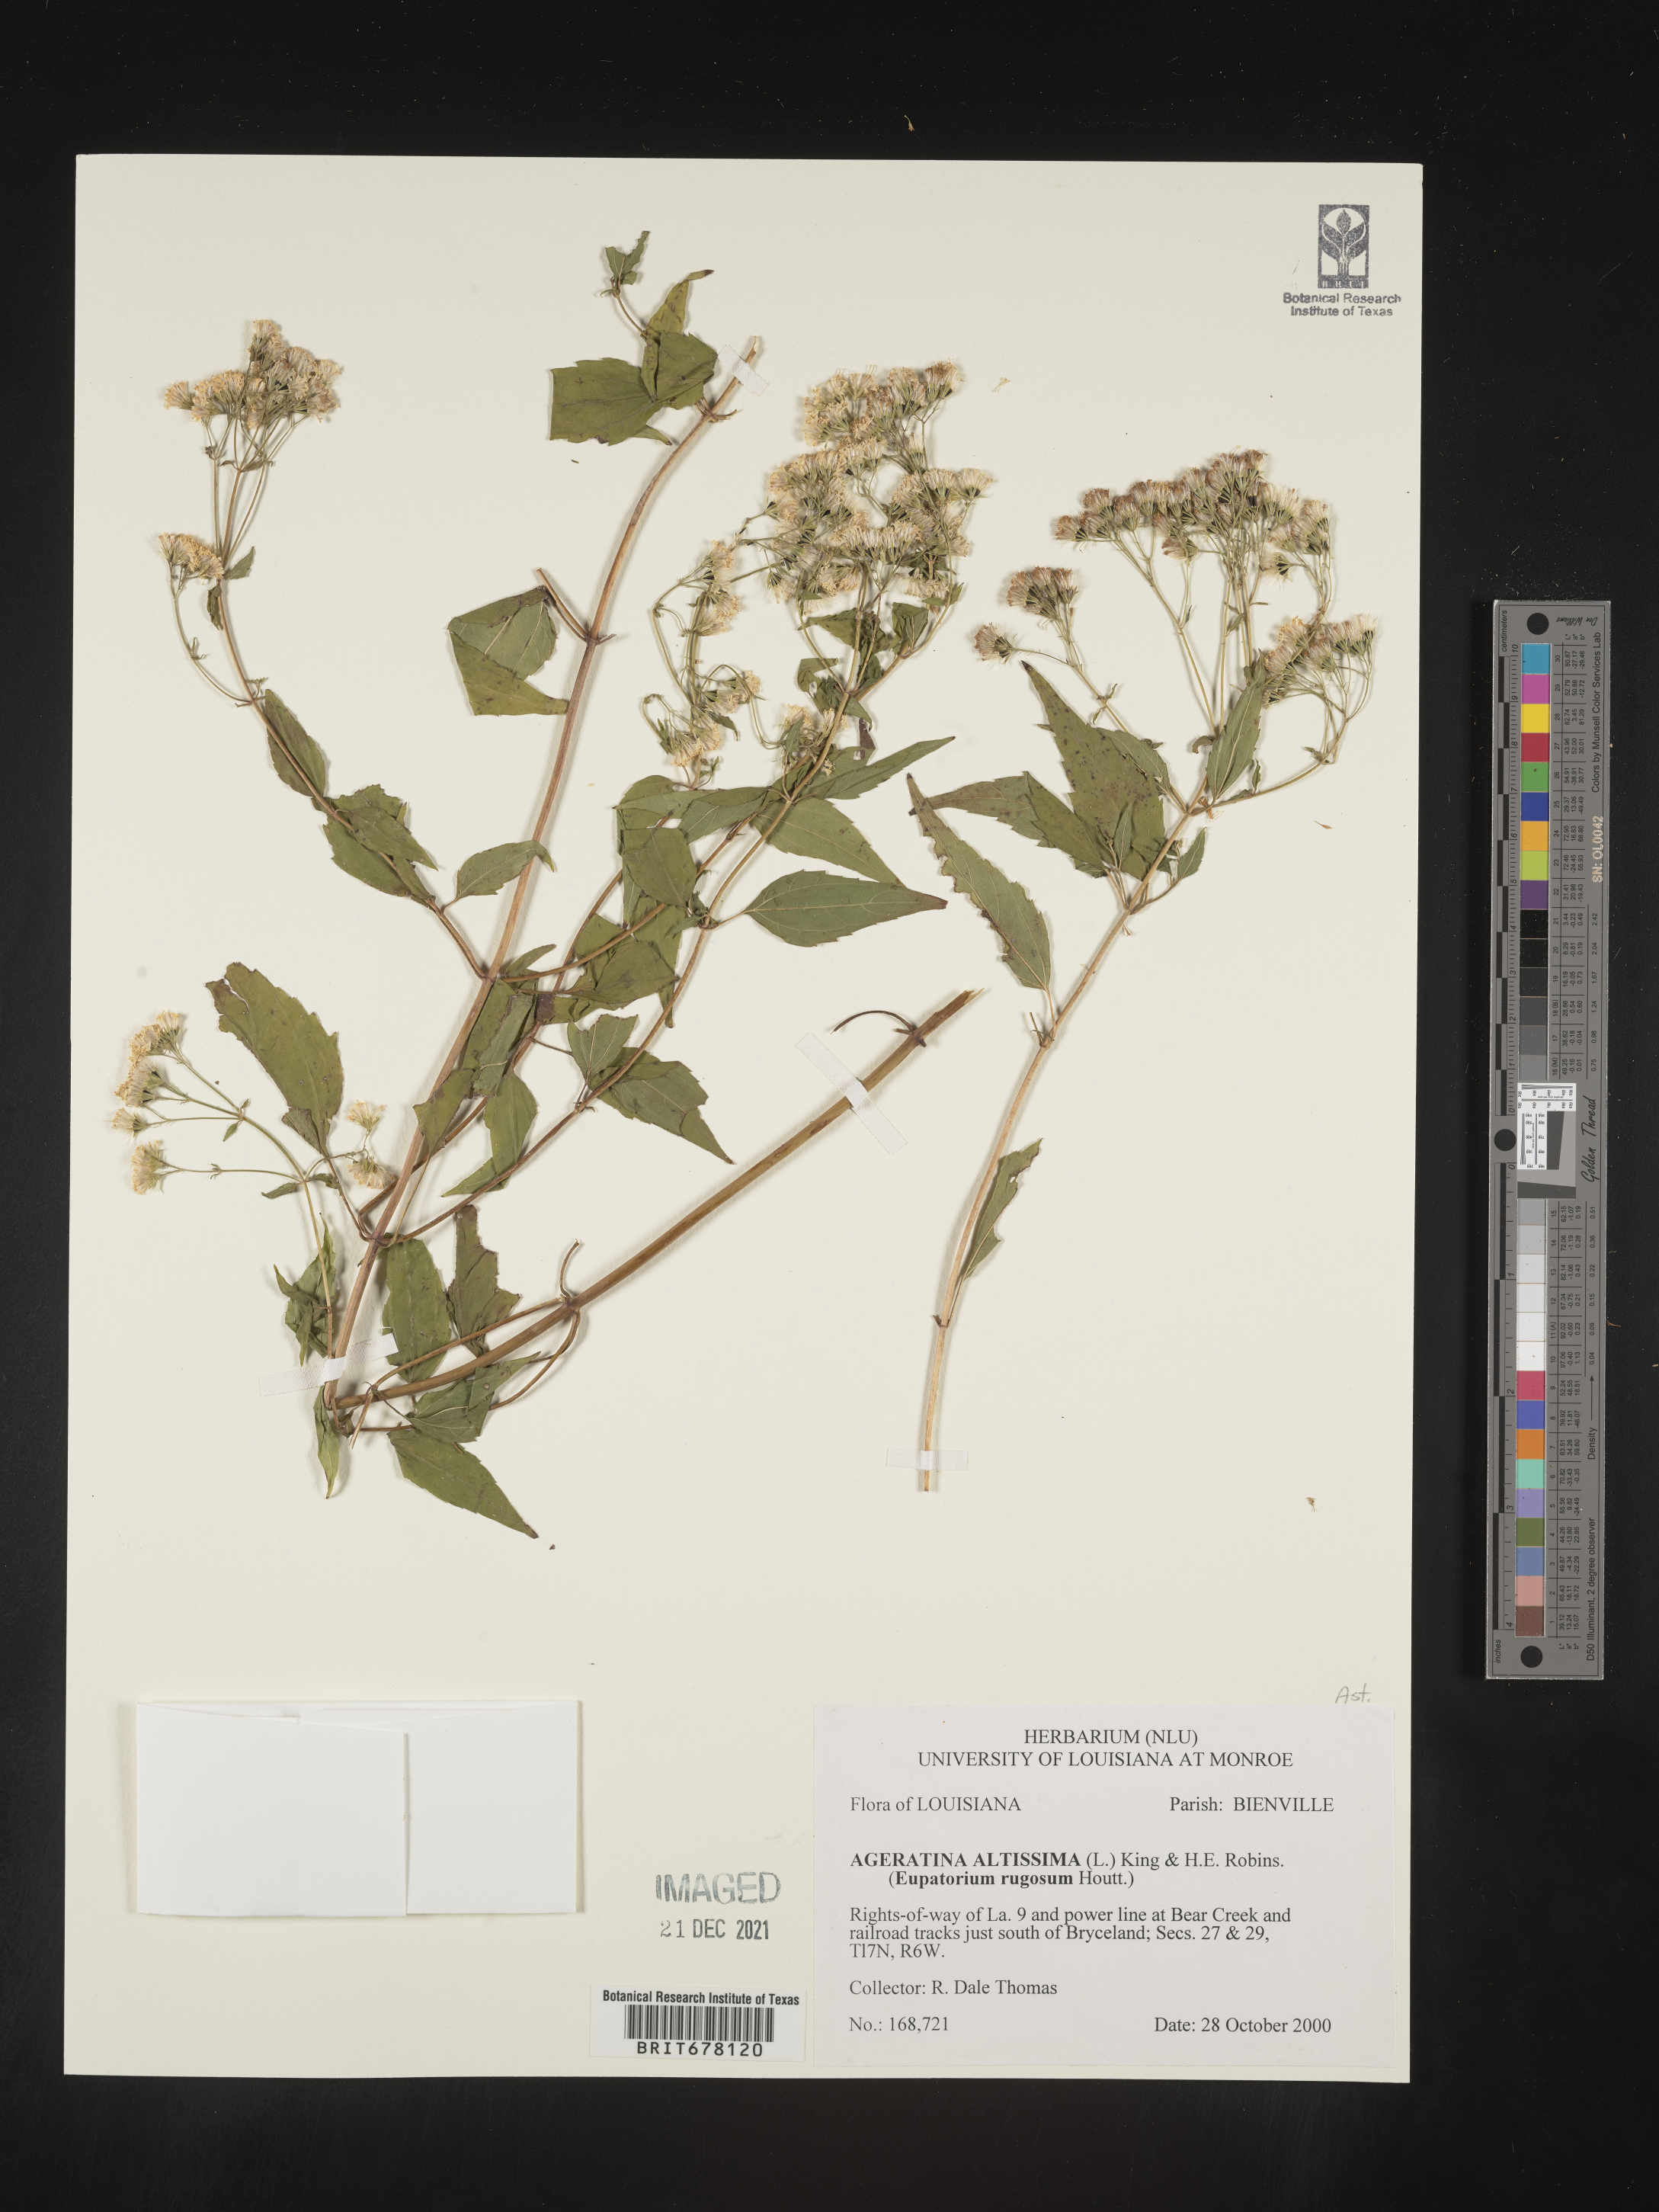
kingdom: Plantae
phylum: Tracheophyta
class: Magnoliopsida
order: Asterales
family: Asteraceae
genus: Eupatorium
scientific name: Eupatorium
